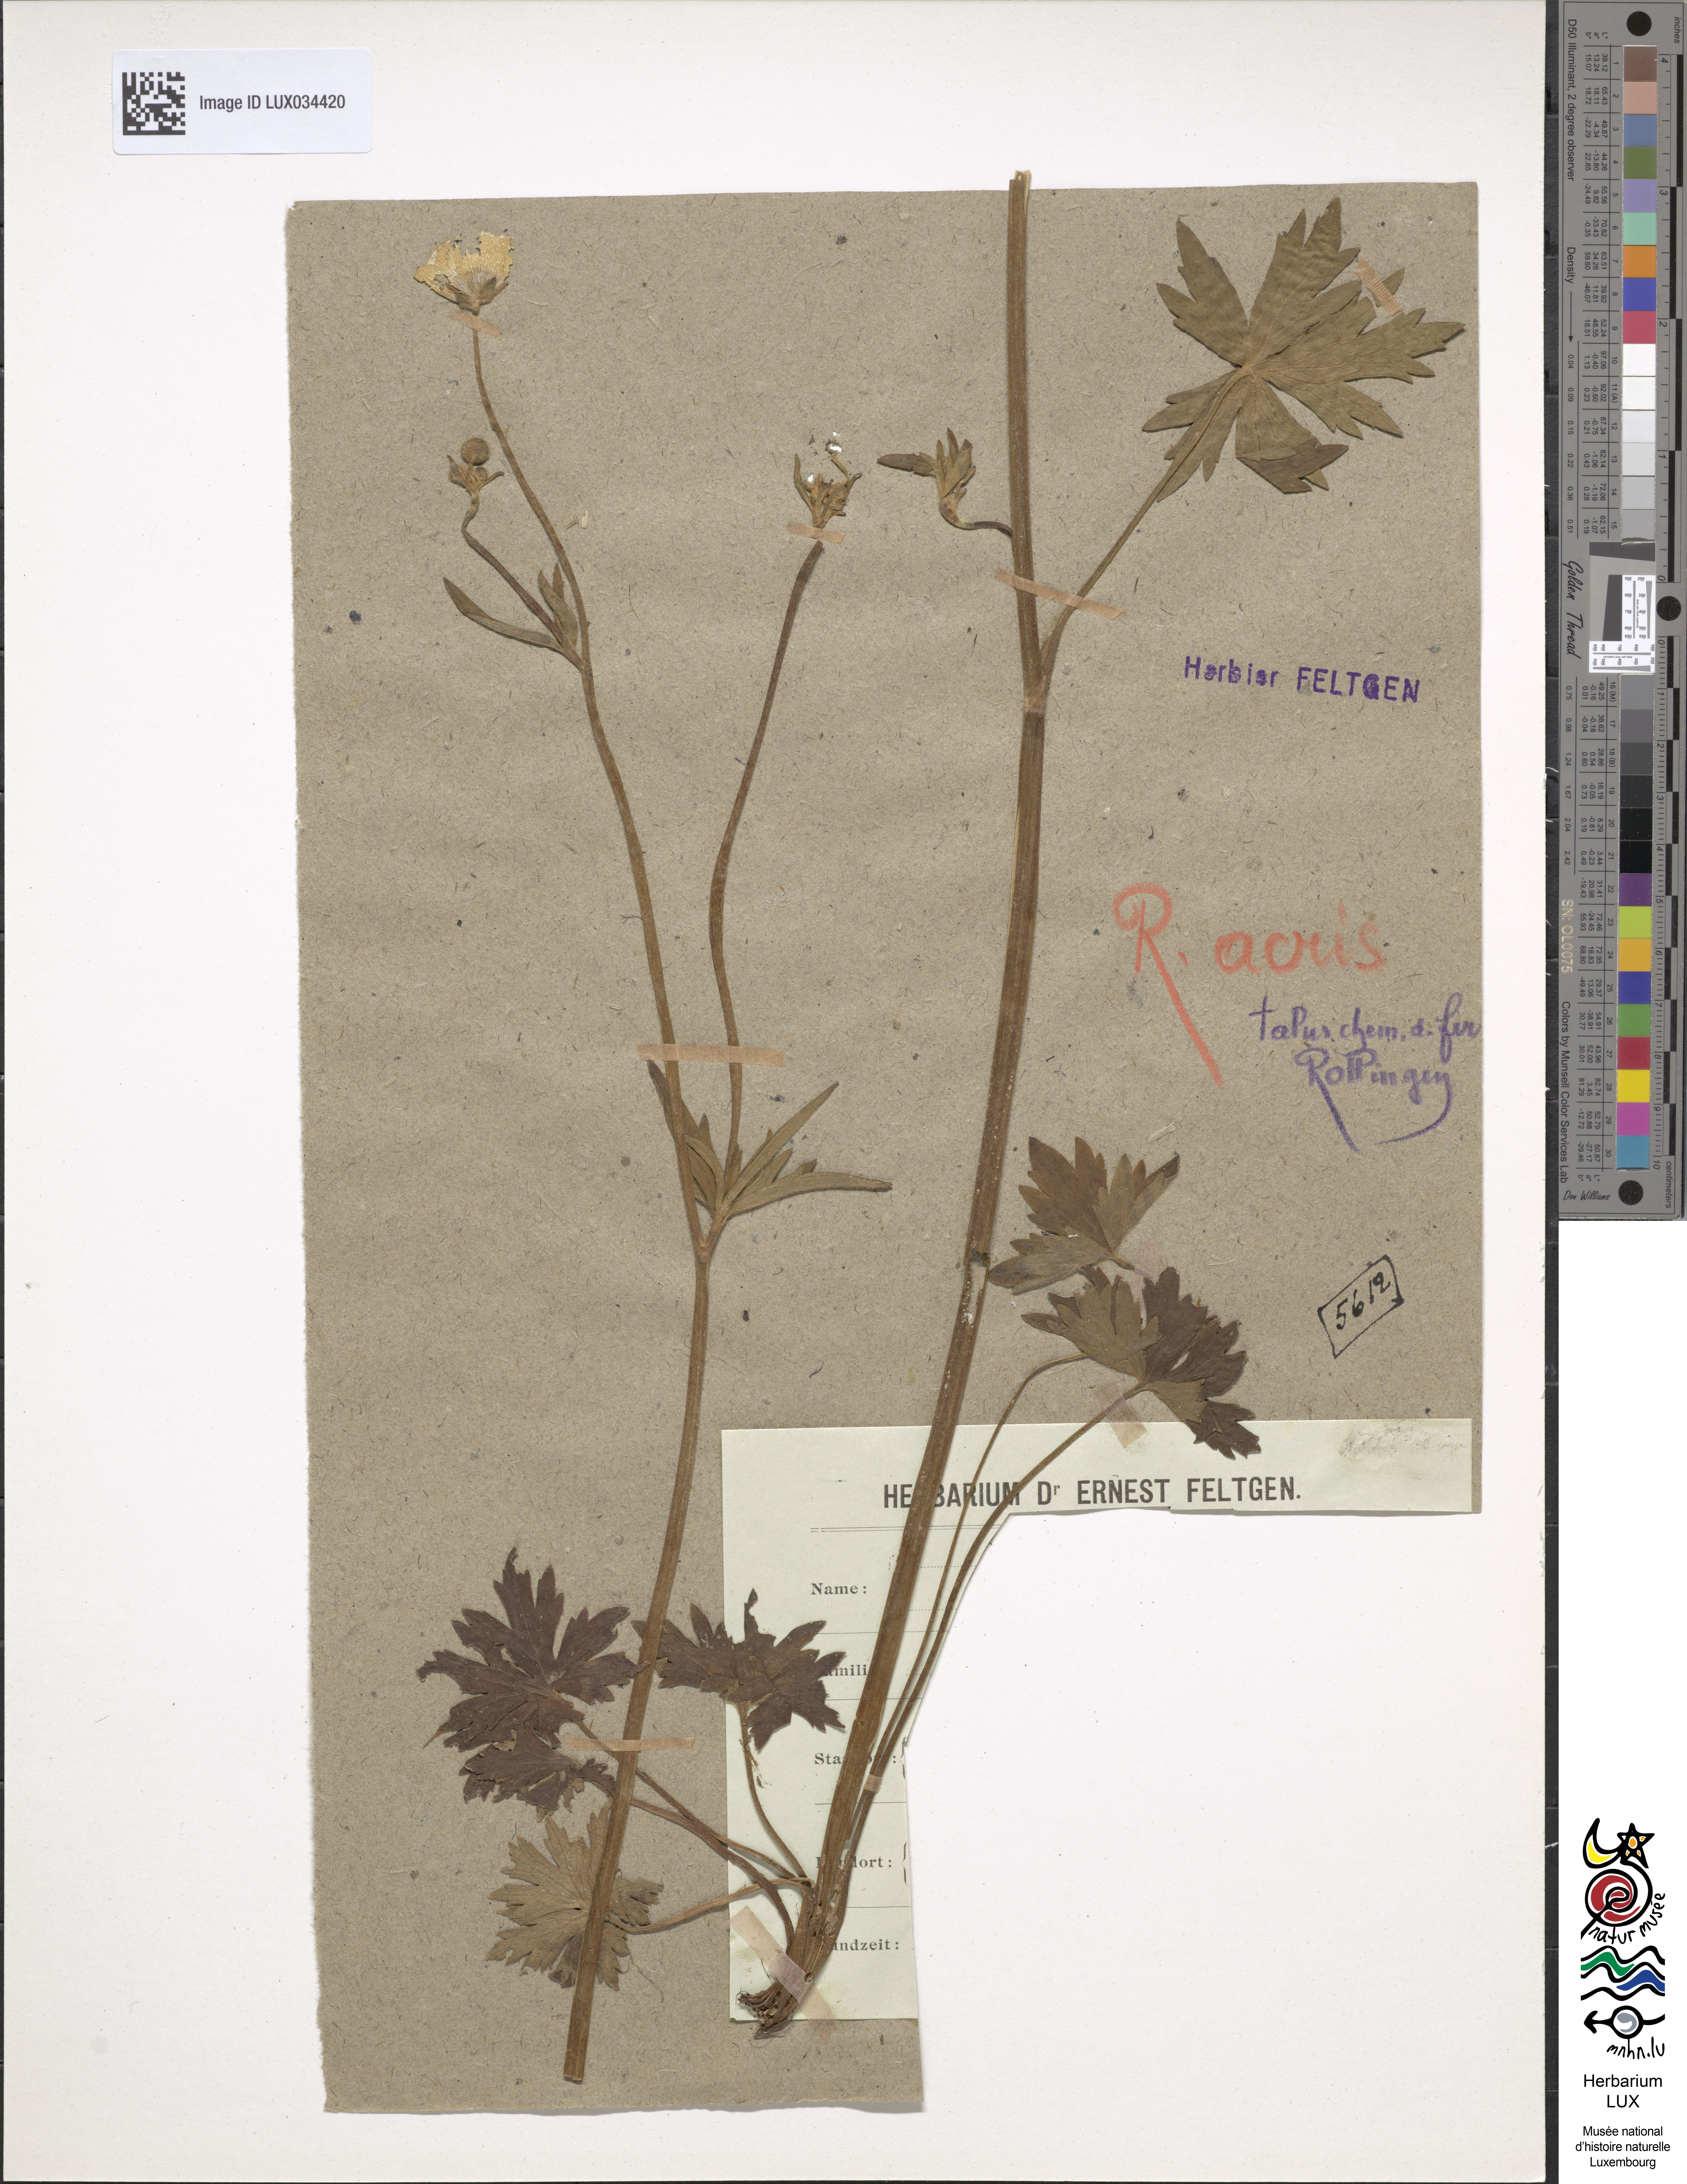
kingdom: Plantae
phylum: Tracheophyta
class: Magnoliopsida
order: Ranunculales
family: Ranunculaceae
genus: Ranunculus
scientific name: Ranunculus acris
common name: Meadow buttercup
